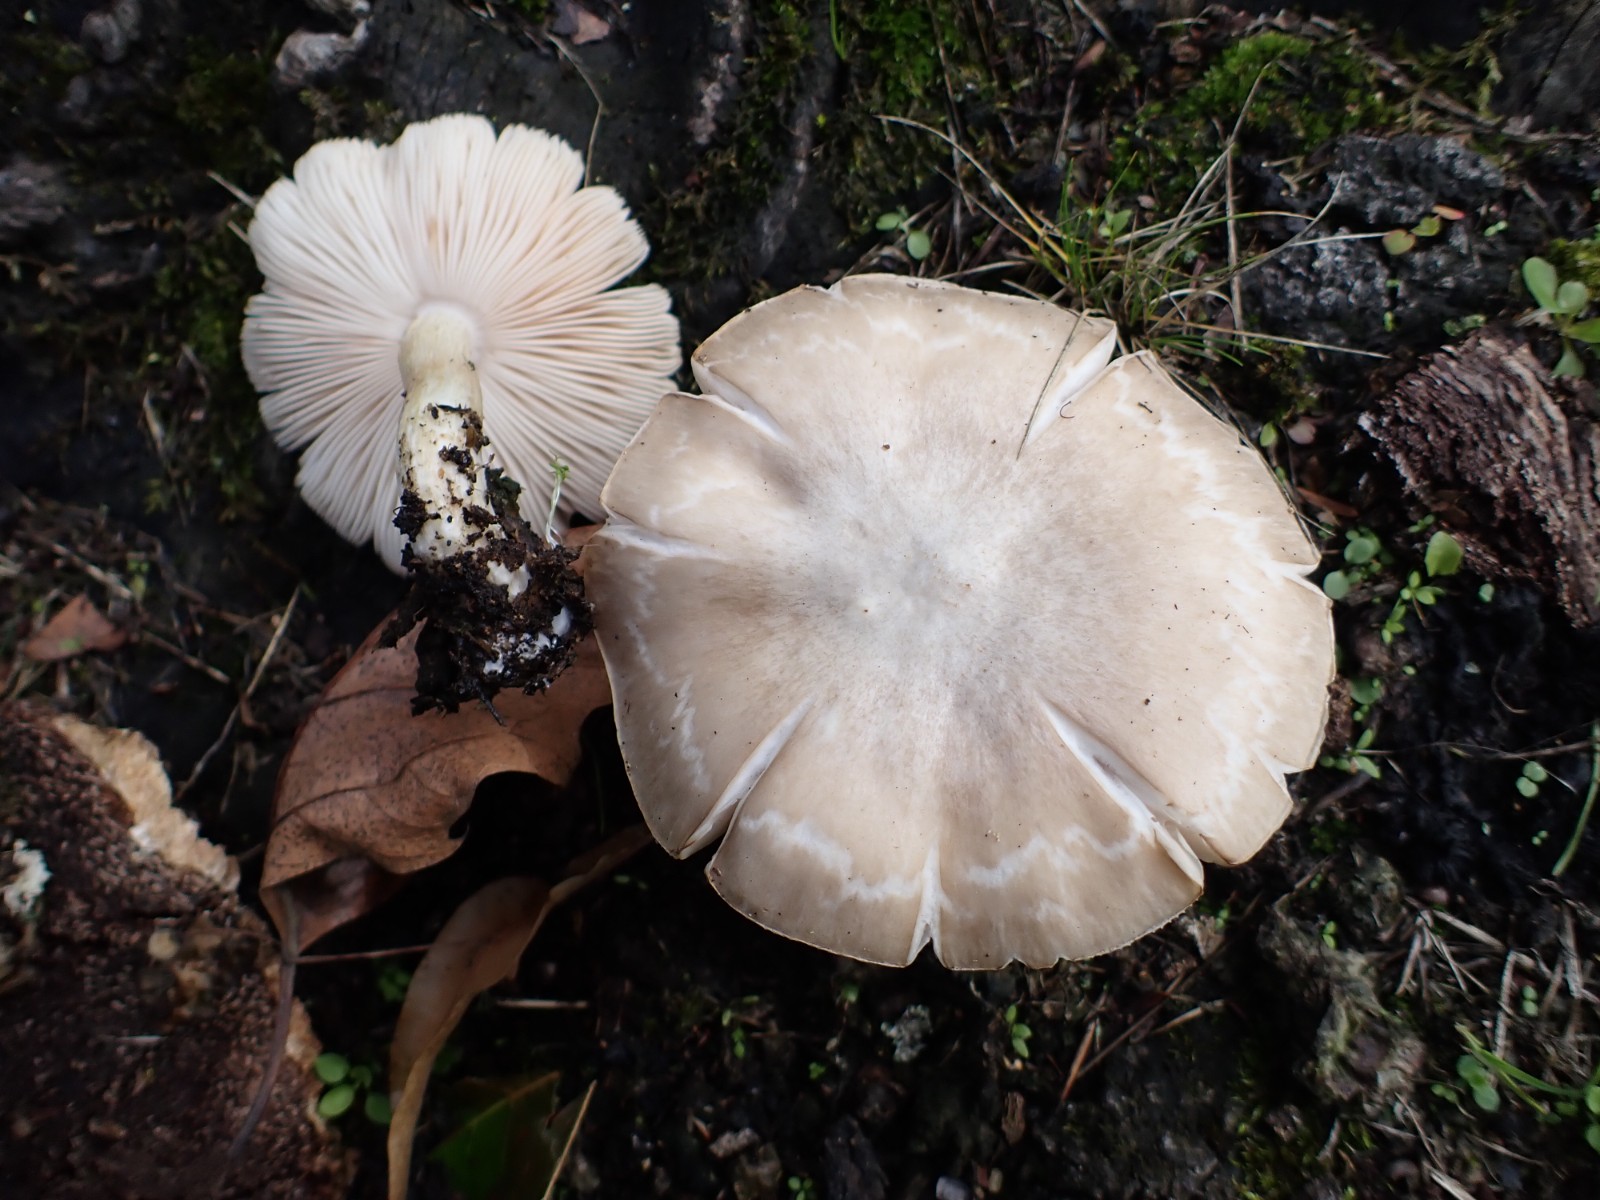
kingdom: Fungi
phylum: Basidiomycota
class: Agaricomycetes
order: Agaricales
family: Pluteaceae
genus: Pluteus
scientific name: Pluteus cervinus
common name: sodfarvet skærmhat
